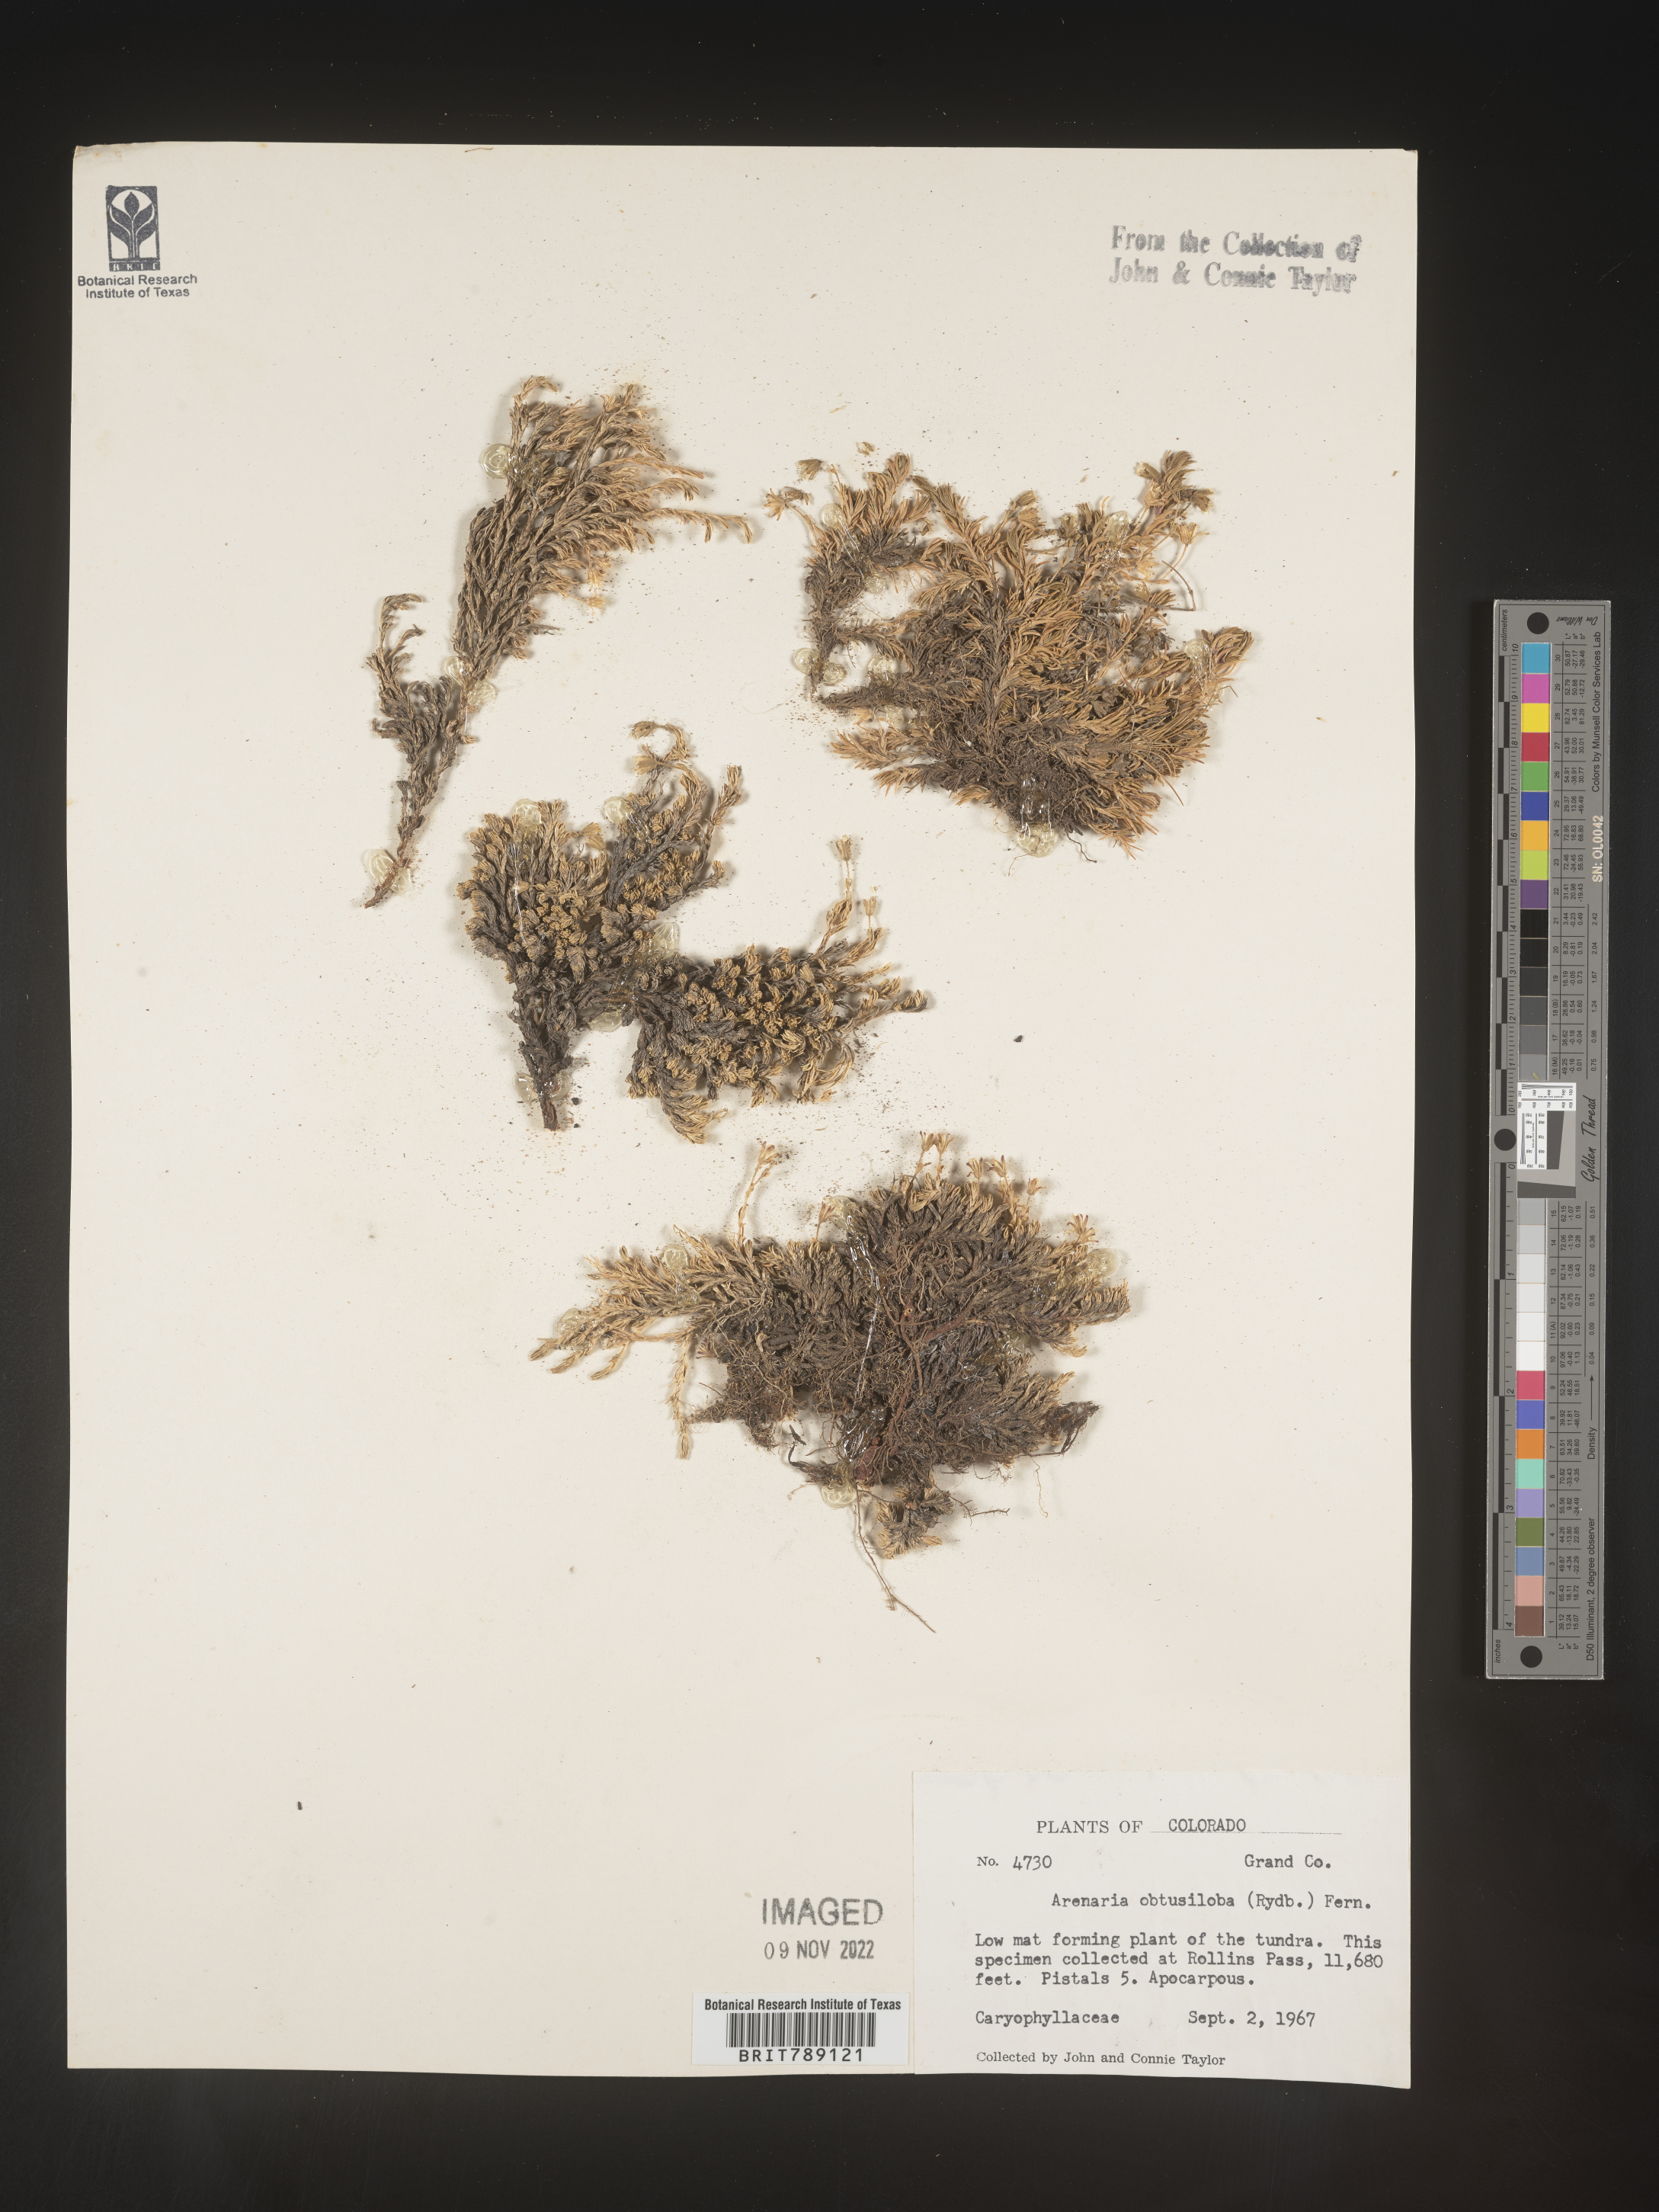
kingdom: Plantae
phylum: Tracheophyta
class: Magnoliopsida
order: Caryophyllales
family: Caryophyllaceae
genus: Arenaria
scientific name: Arenaria
